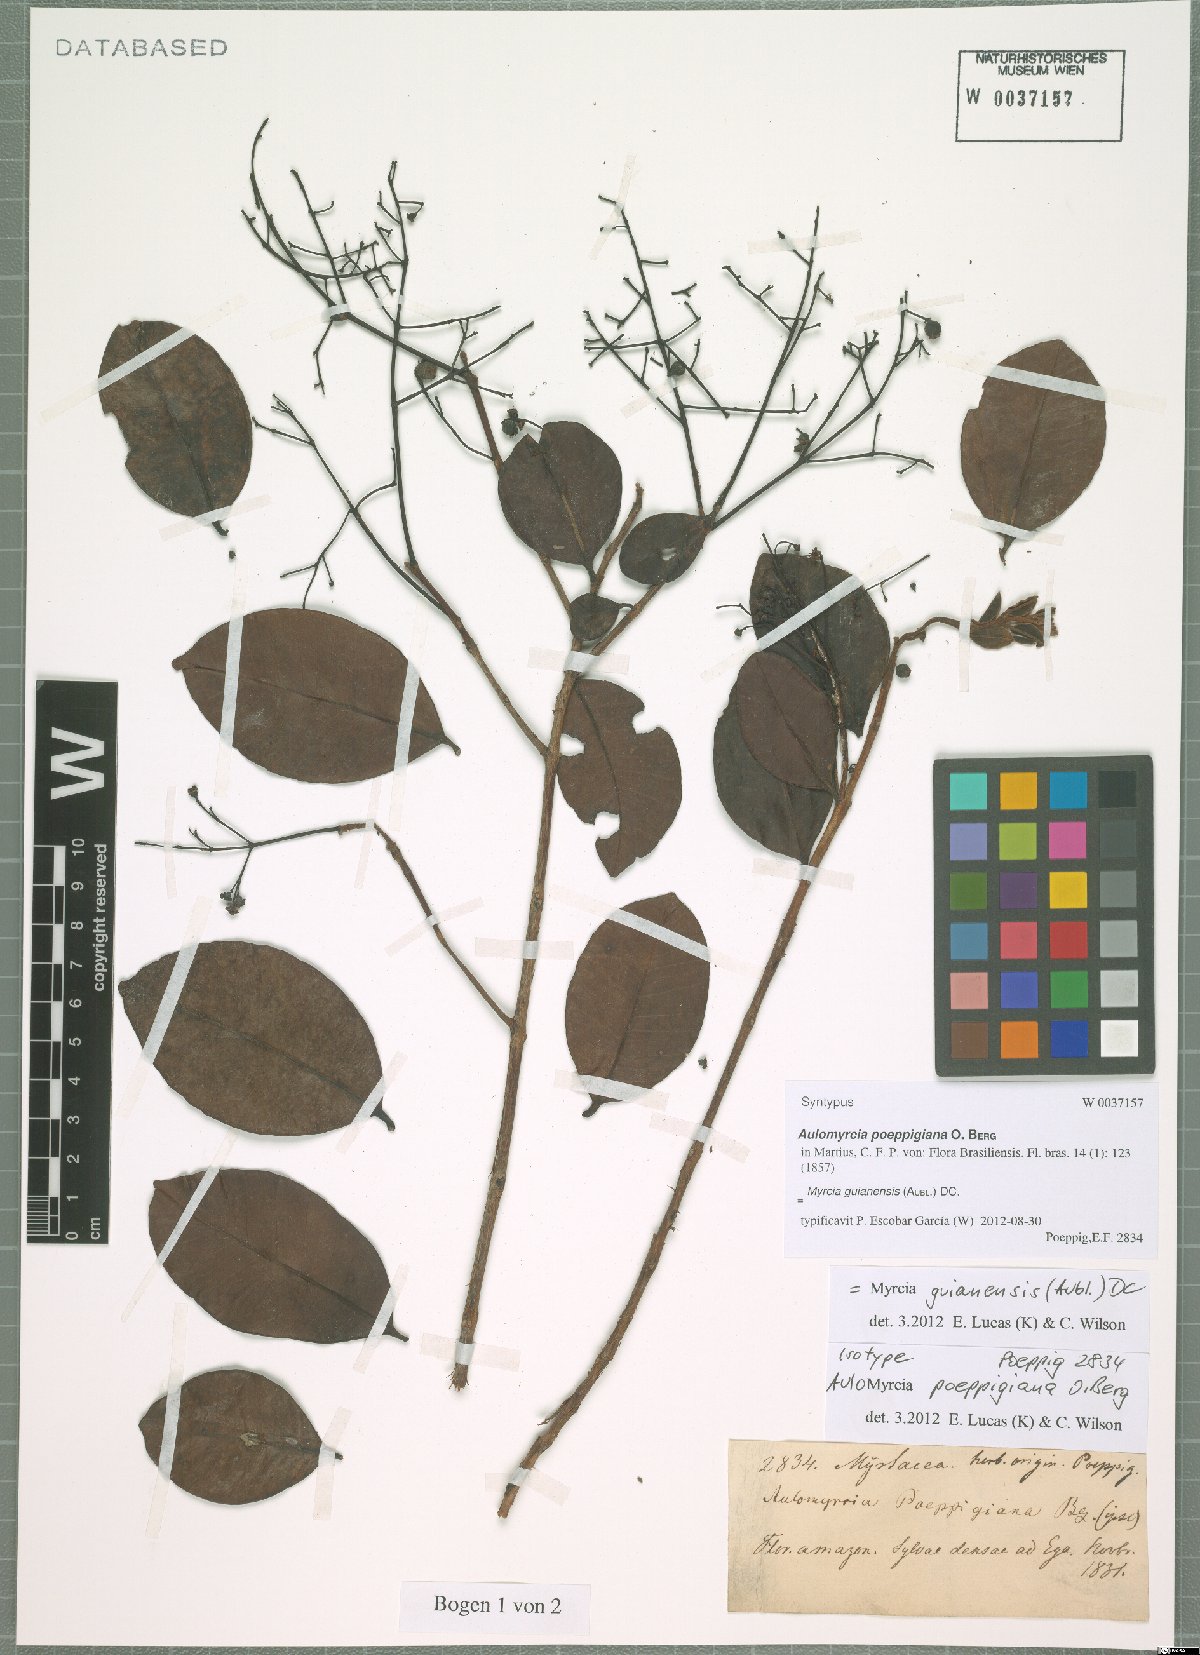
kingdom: Plantae
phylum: Tracheophyta
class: Magnoliopsida
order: Myrtales
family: Myrtaceae
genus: Myrcia
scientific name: Myrcia guianensis
